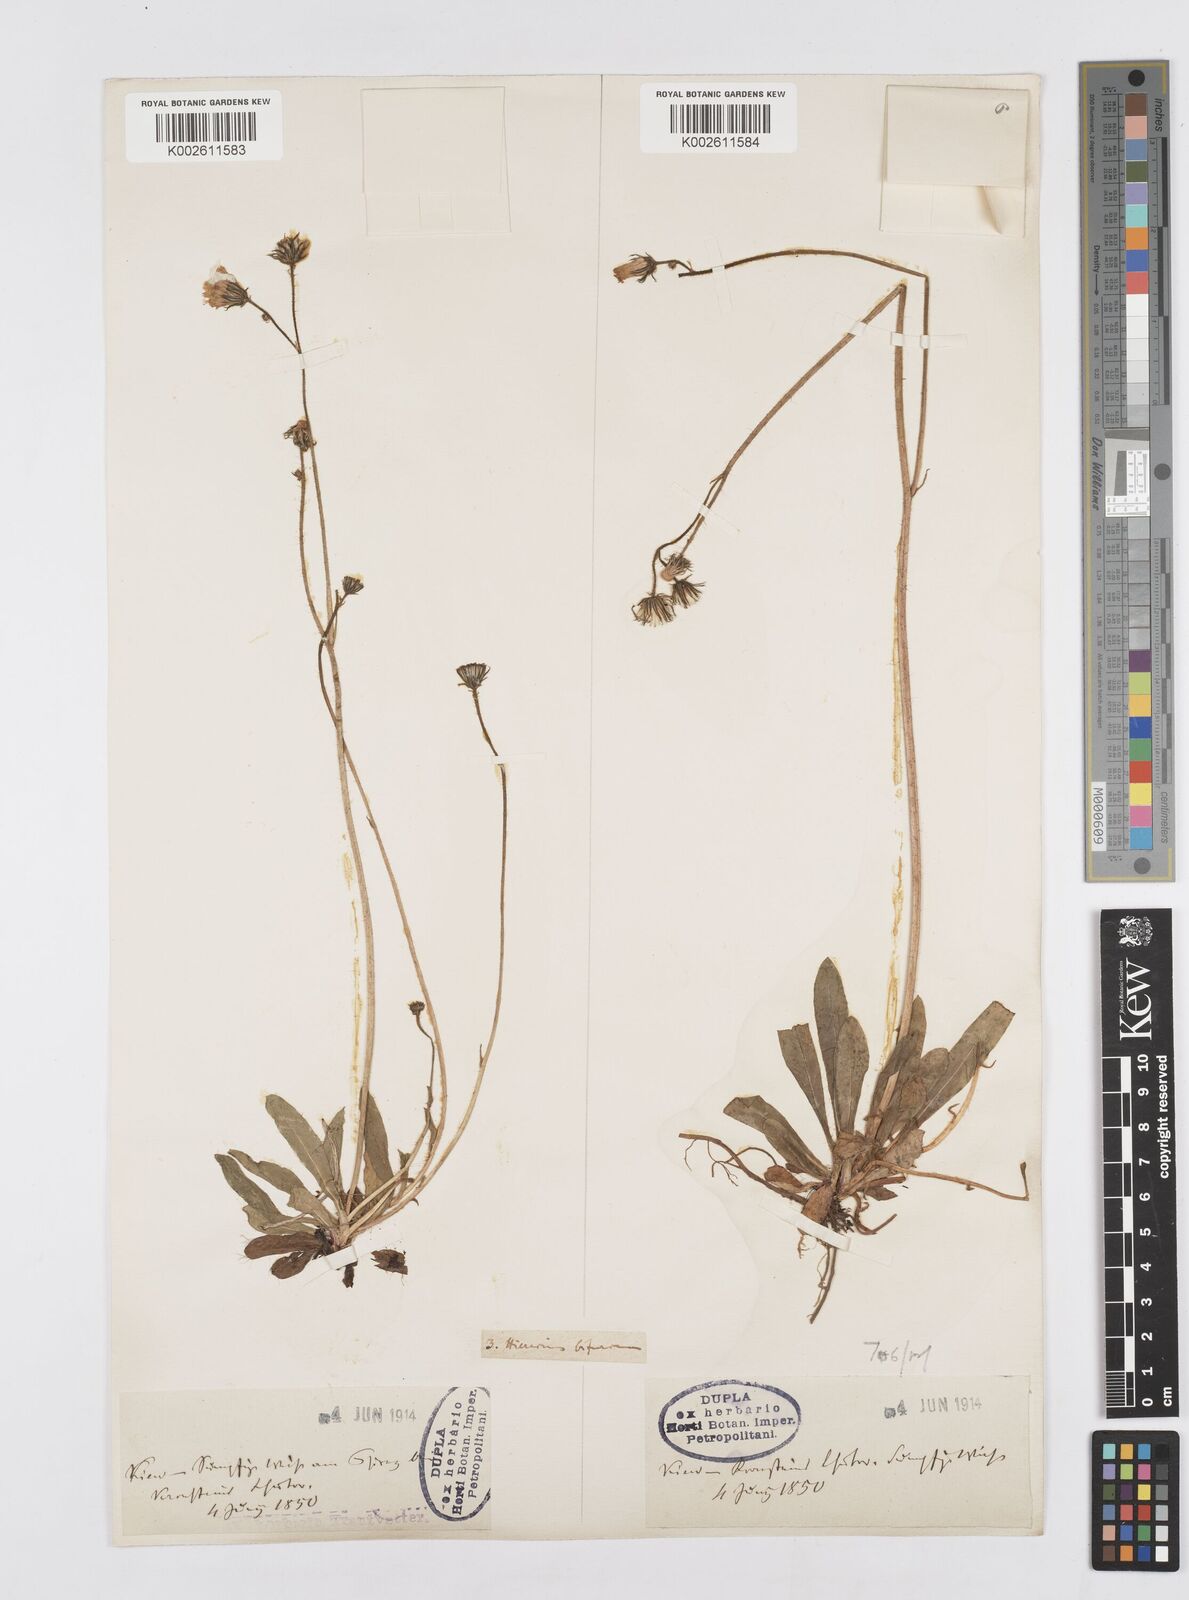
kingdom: Plantae
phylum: Tracheophyta
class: Magnoliopsida
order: Asterales
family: Asteraceae
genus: Pilosella
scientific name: Pilosella acutifolia
